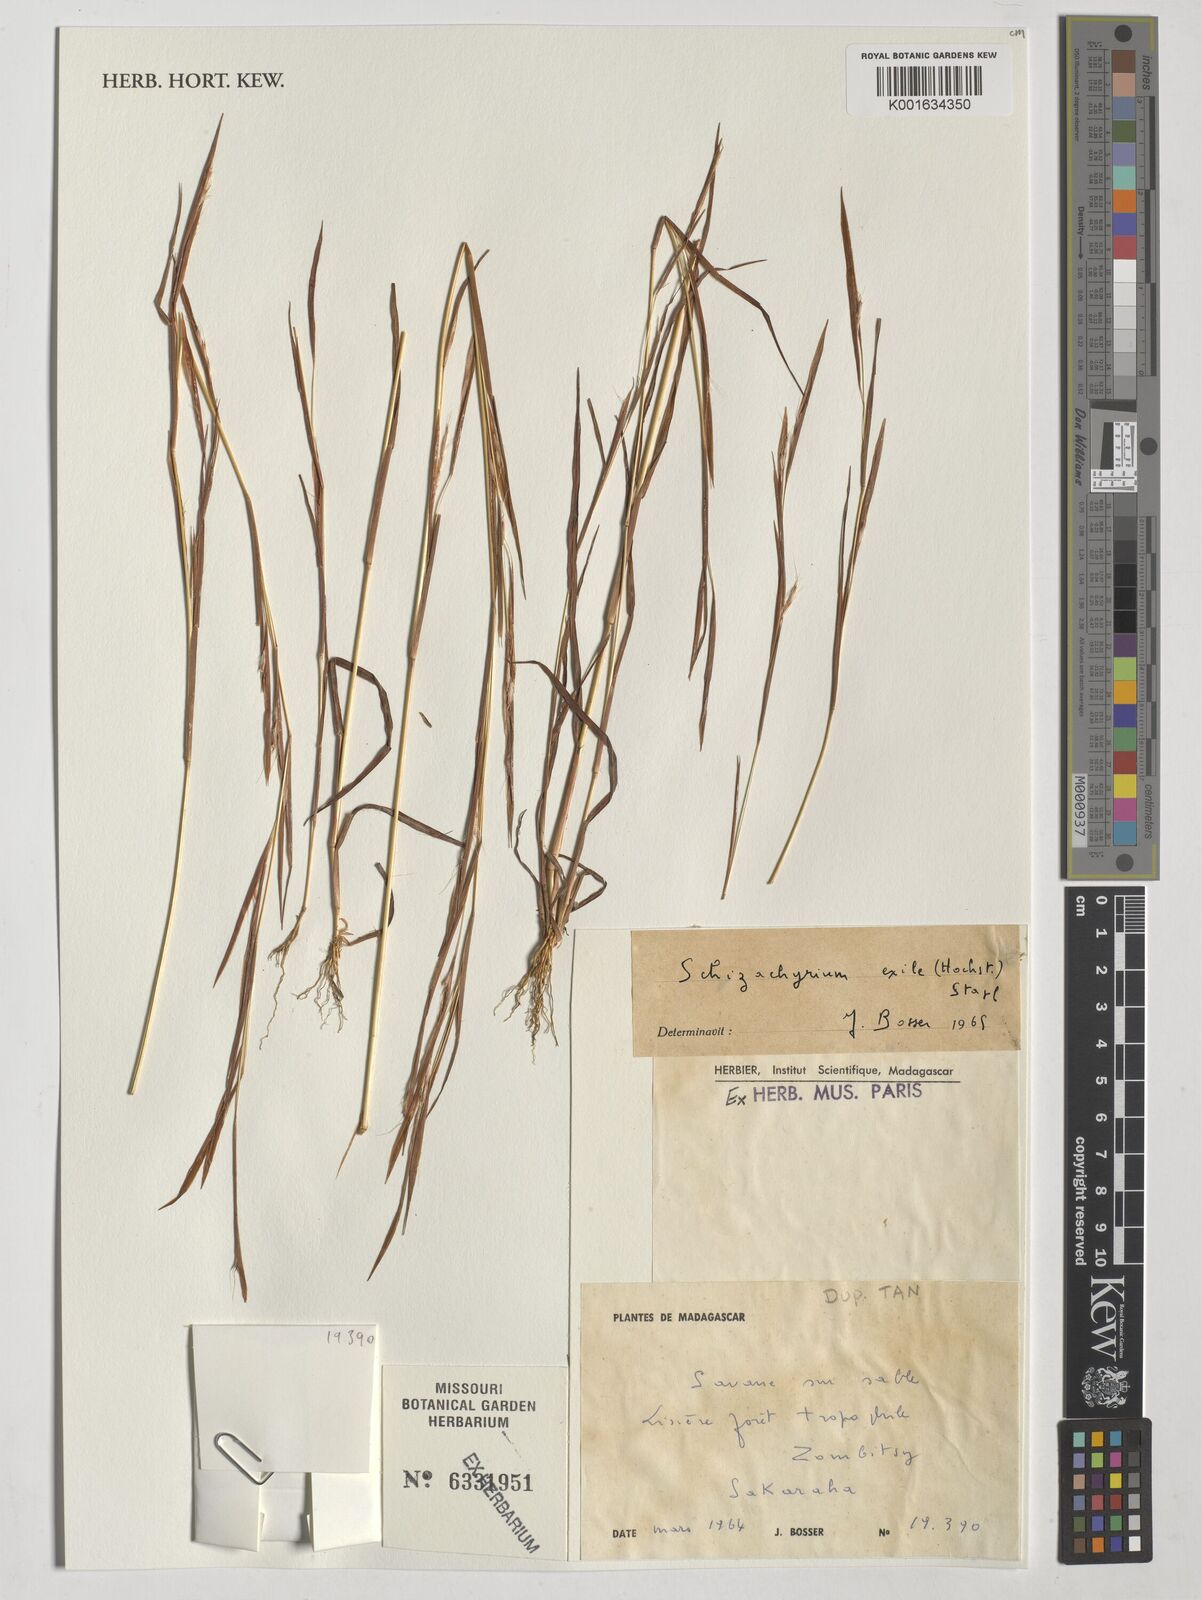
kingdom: Plantae
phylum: Tracheophyta
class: Liliopsida
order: Poales
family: Poaceae
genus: Schizachyrium
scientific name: Schizachyrium exile
